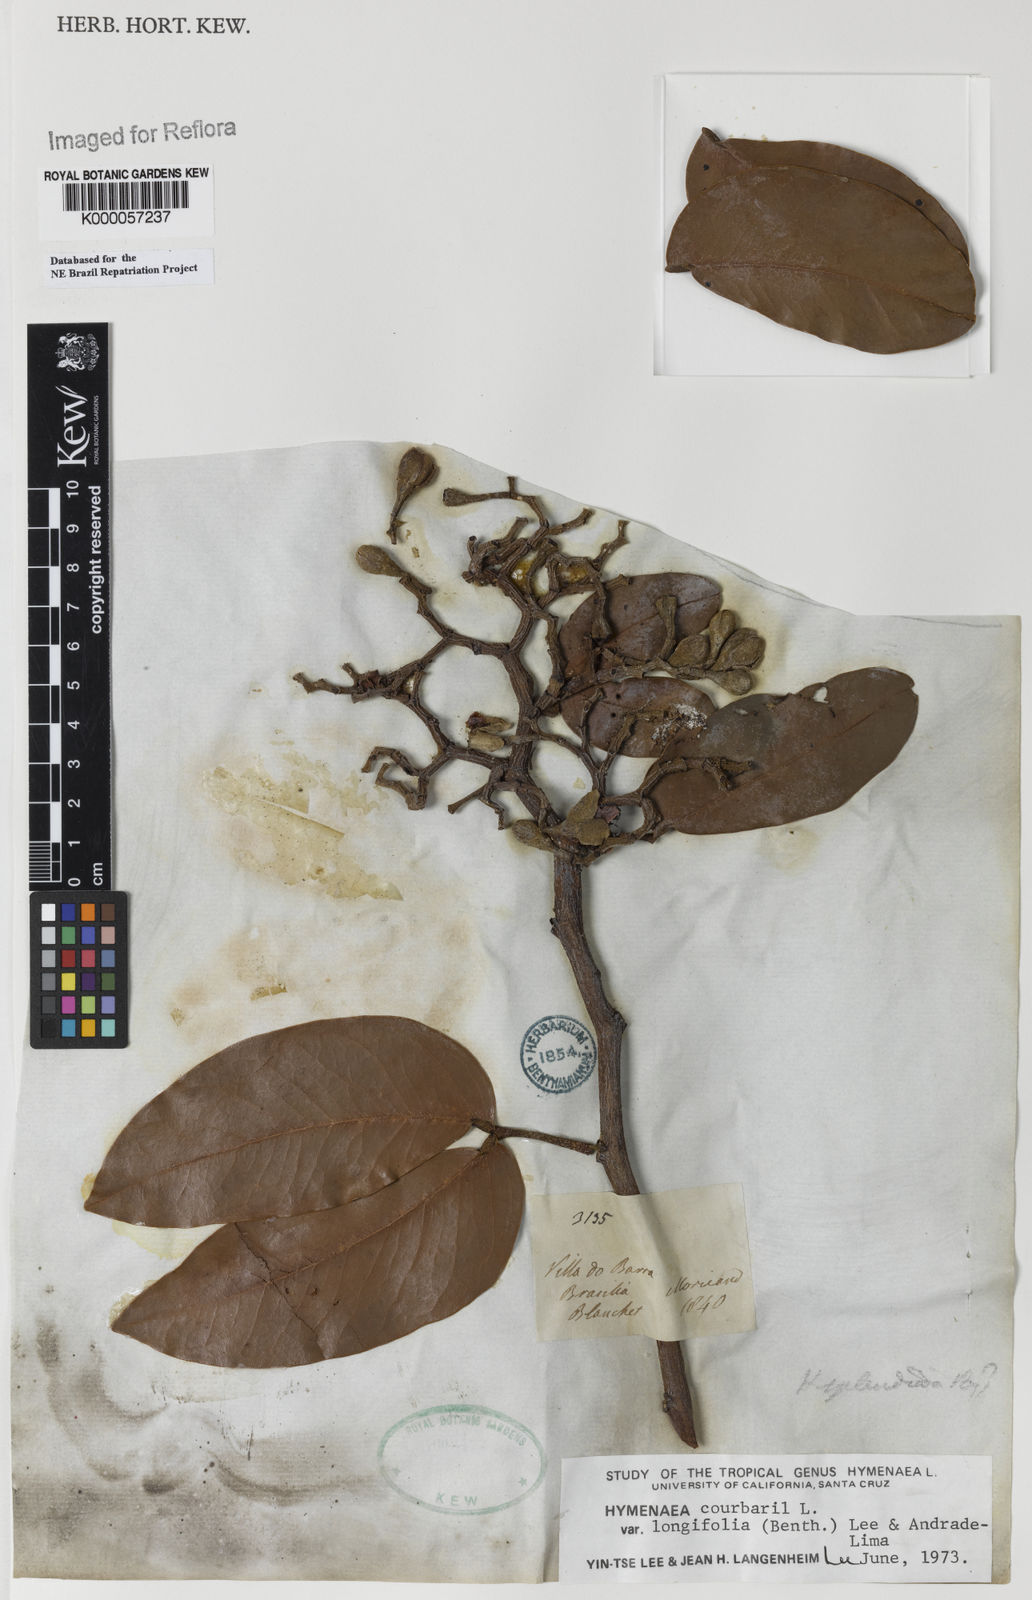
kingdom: Plantae
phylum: Tracheophyta
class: Magnoliopsida
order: Fabales
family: Fabaceae
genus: Hymenaea
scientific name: Hymenaea longifolia
